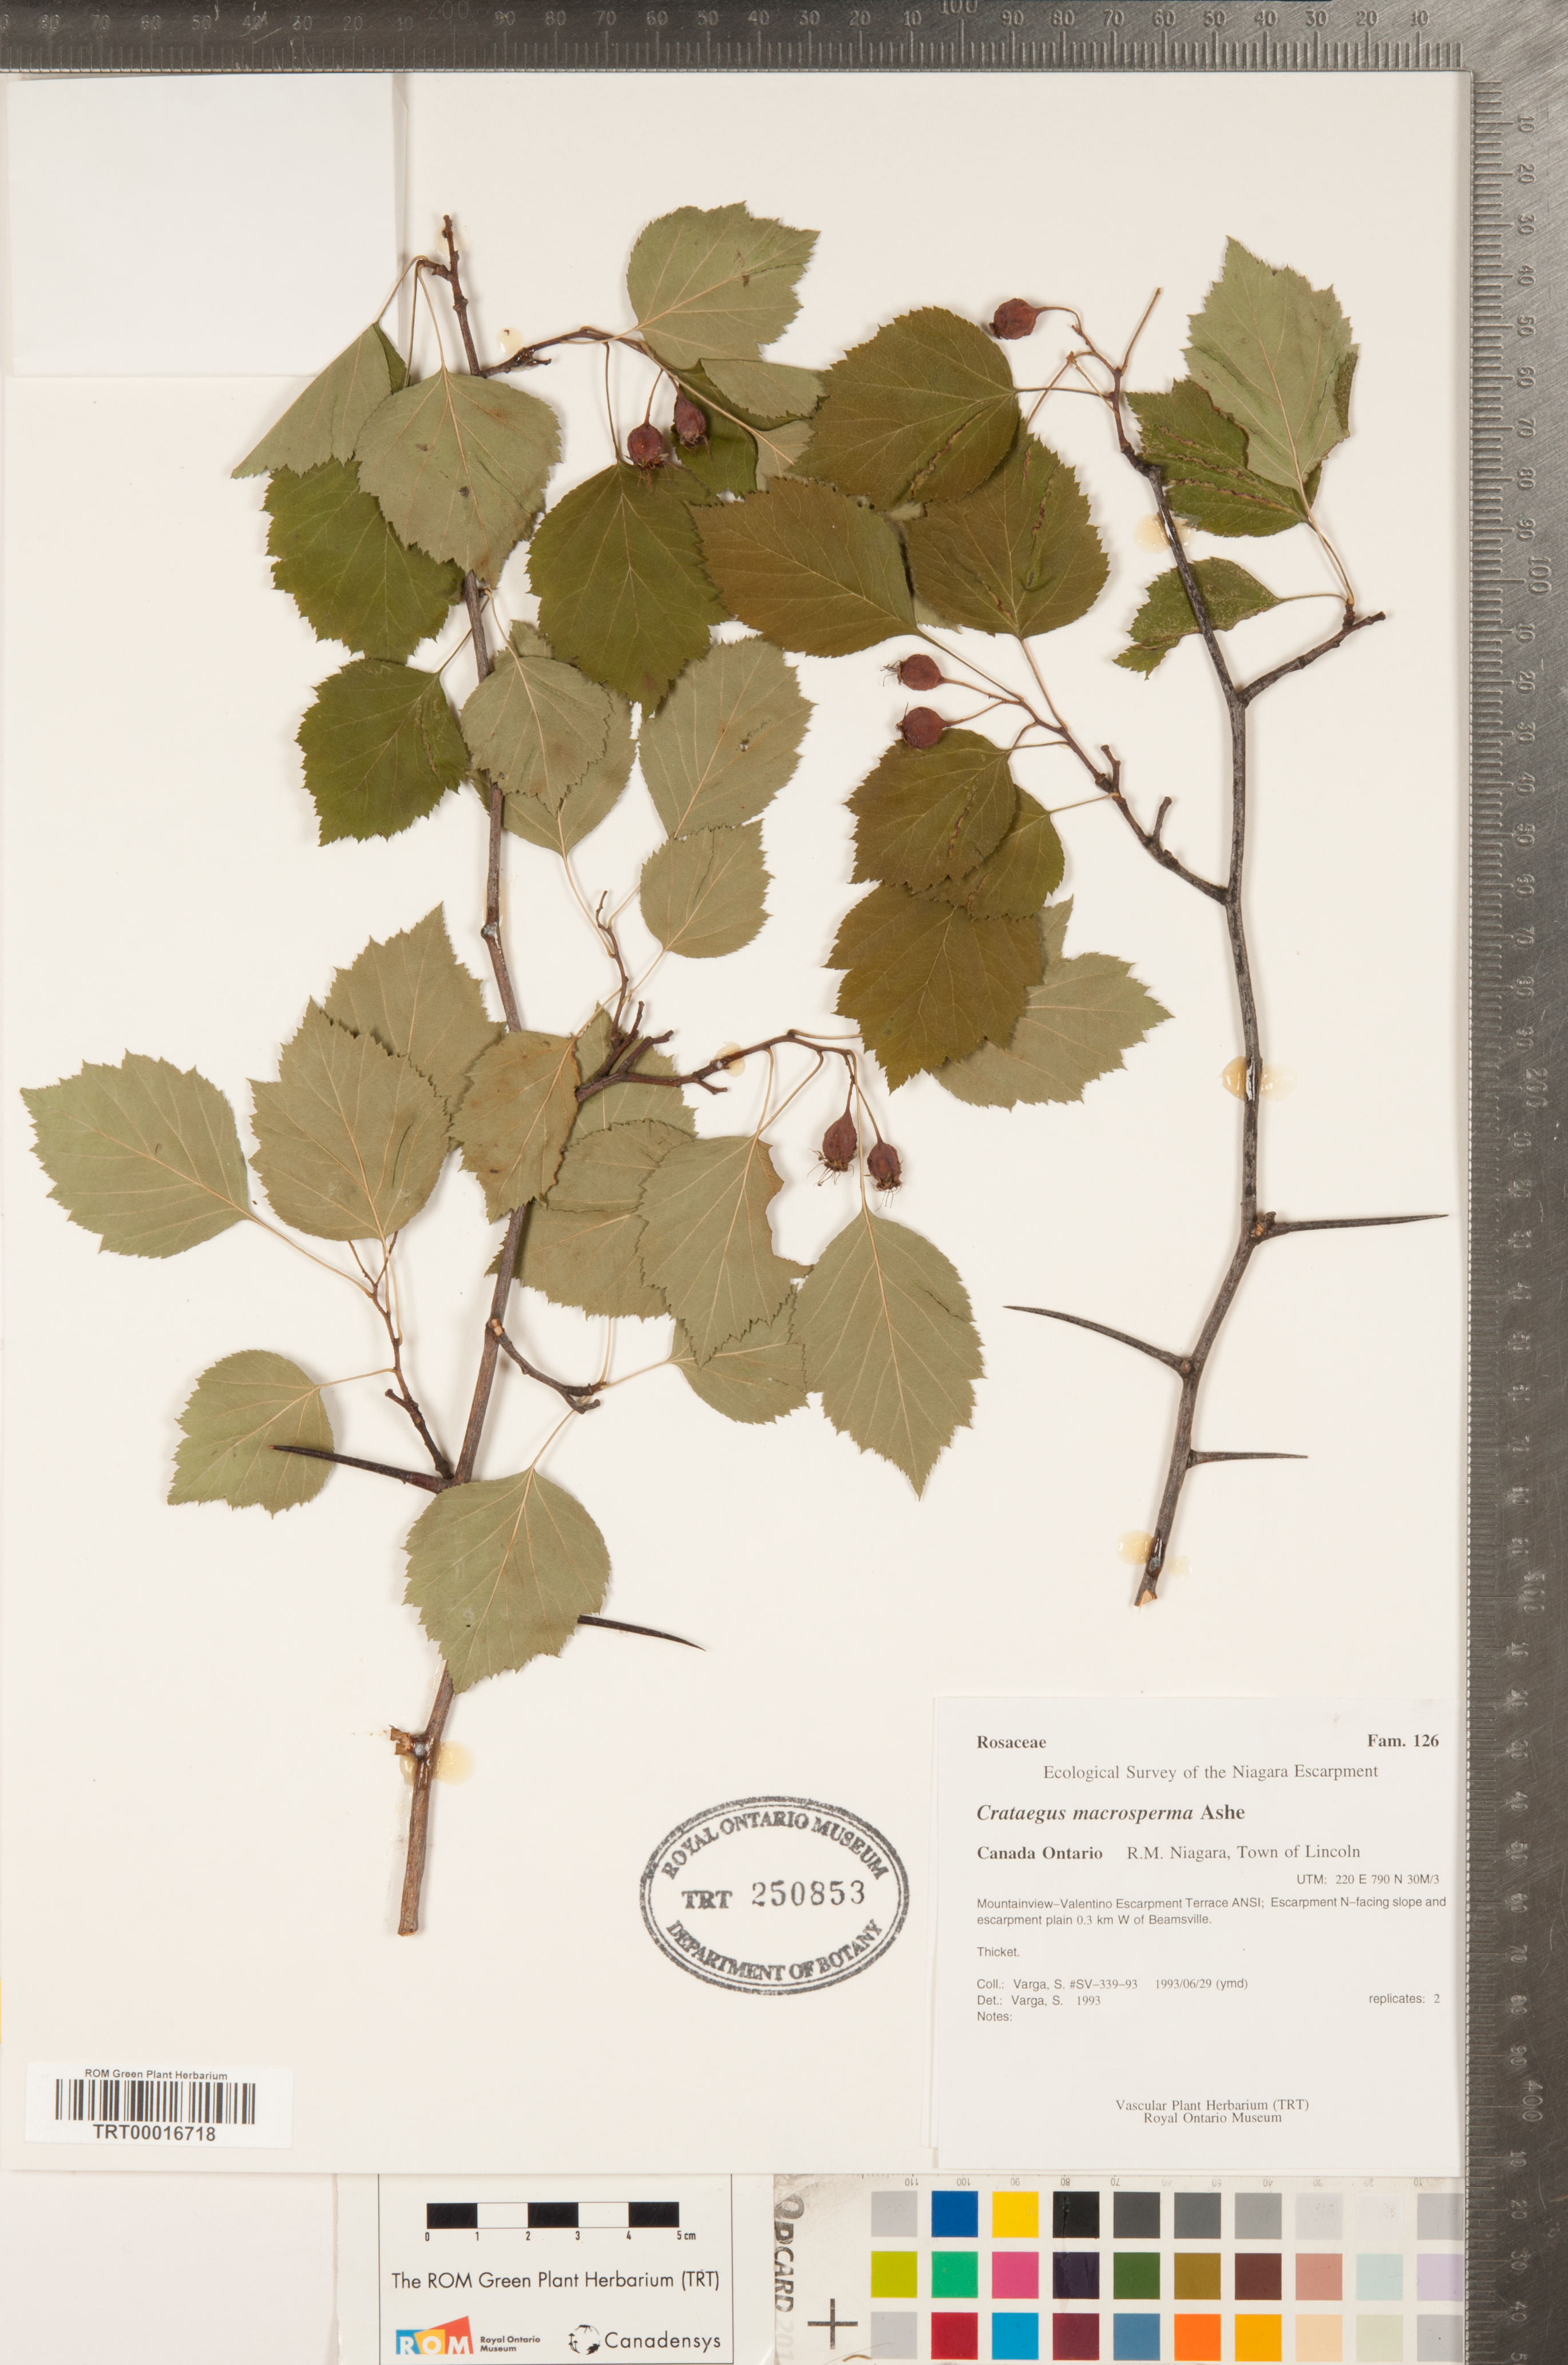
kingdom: Plantae
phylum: Tracheophyta
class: Magnoliopsida
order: Rosales
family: Rosaceae
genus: Crataegus
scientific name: Crataegus macrosperma
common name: Variable hawthorn
